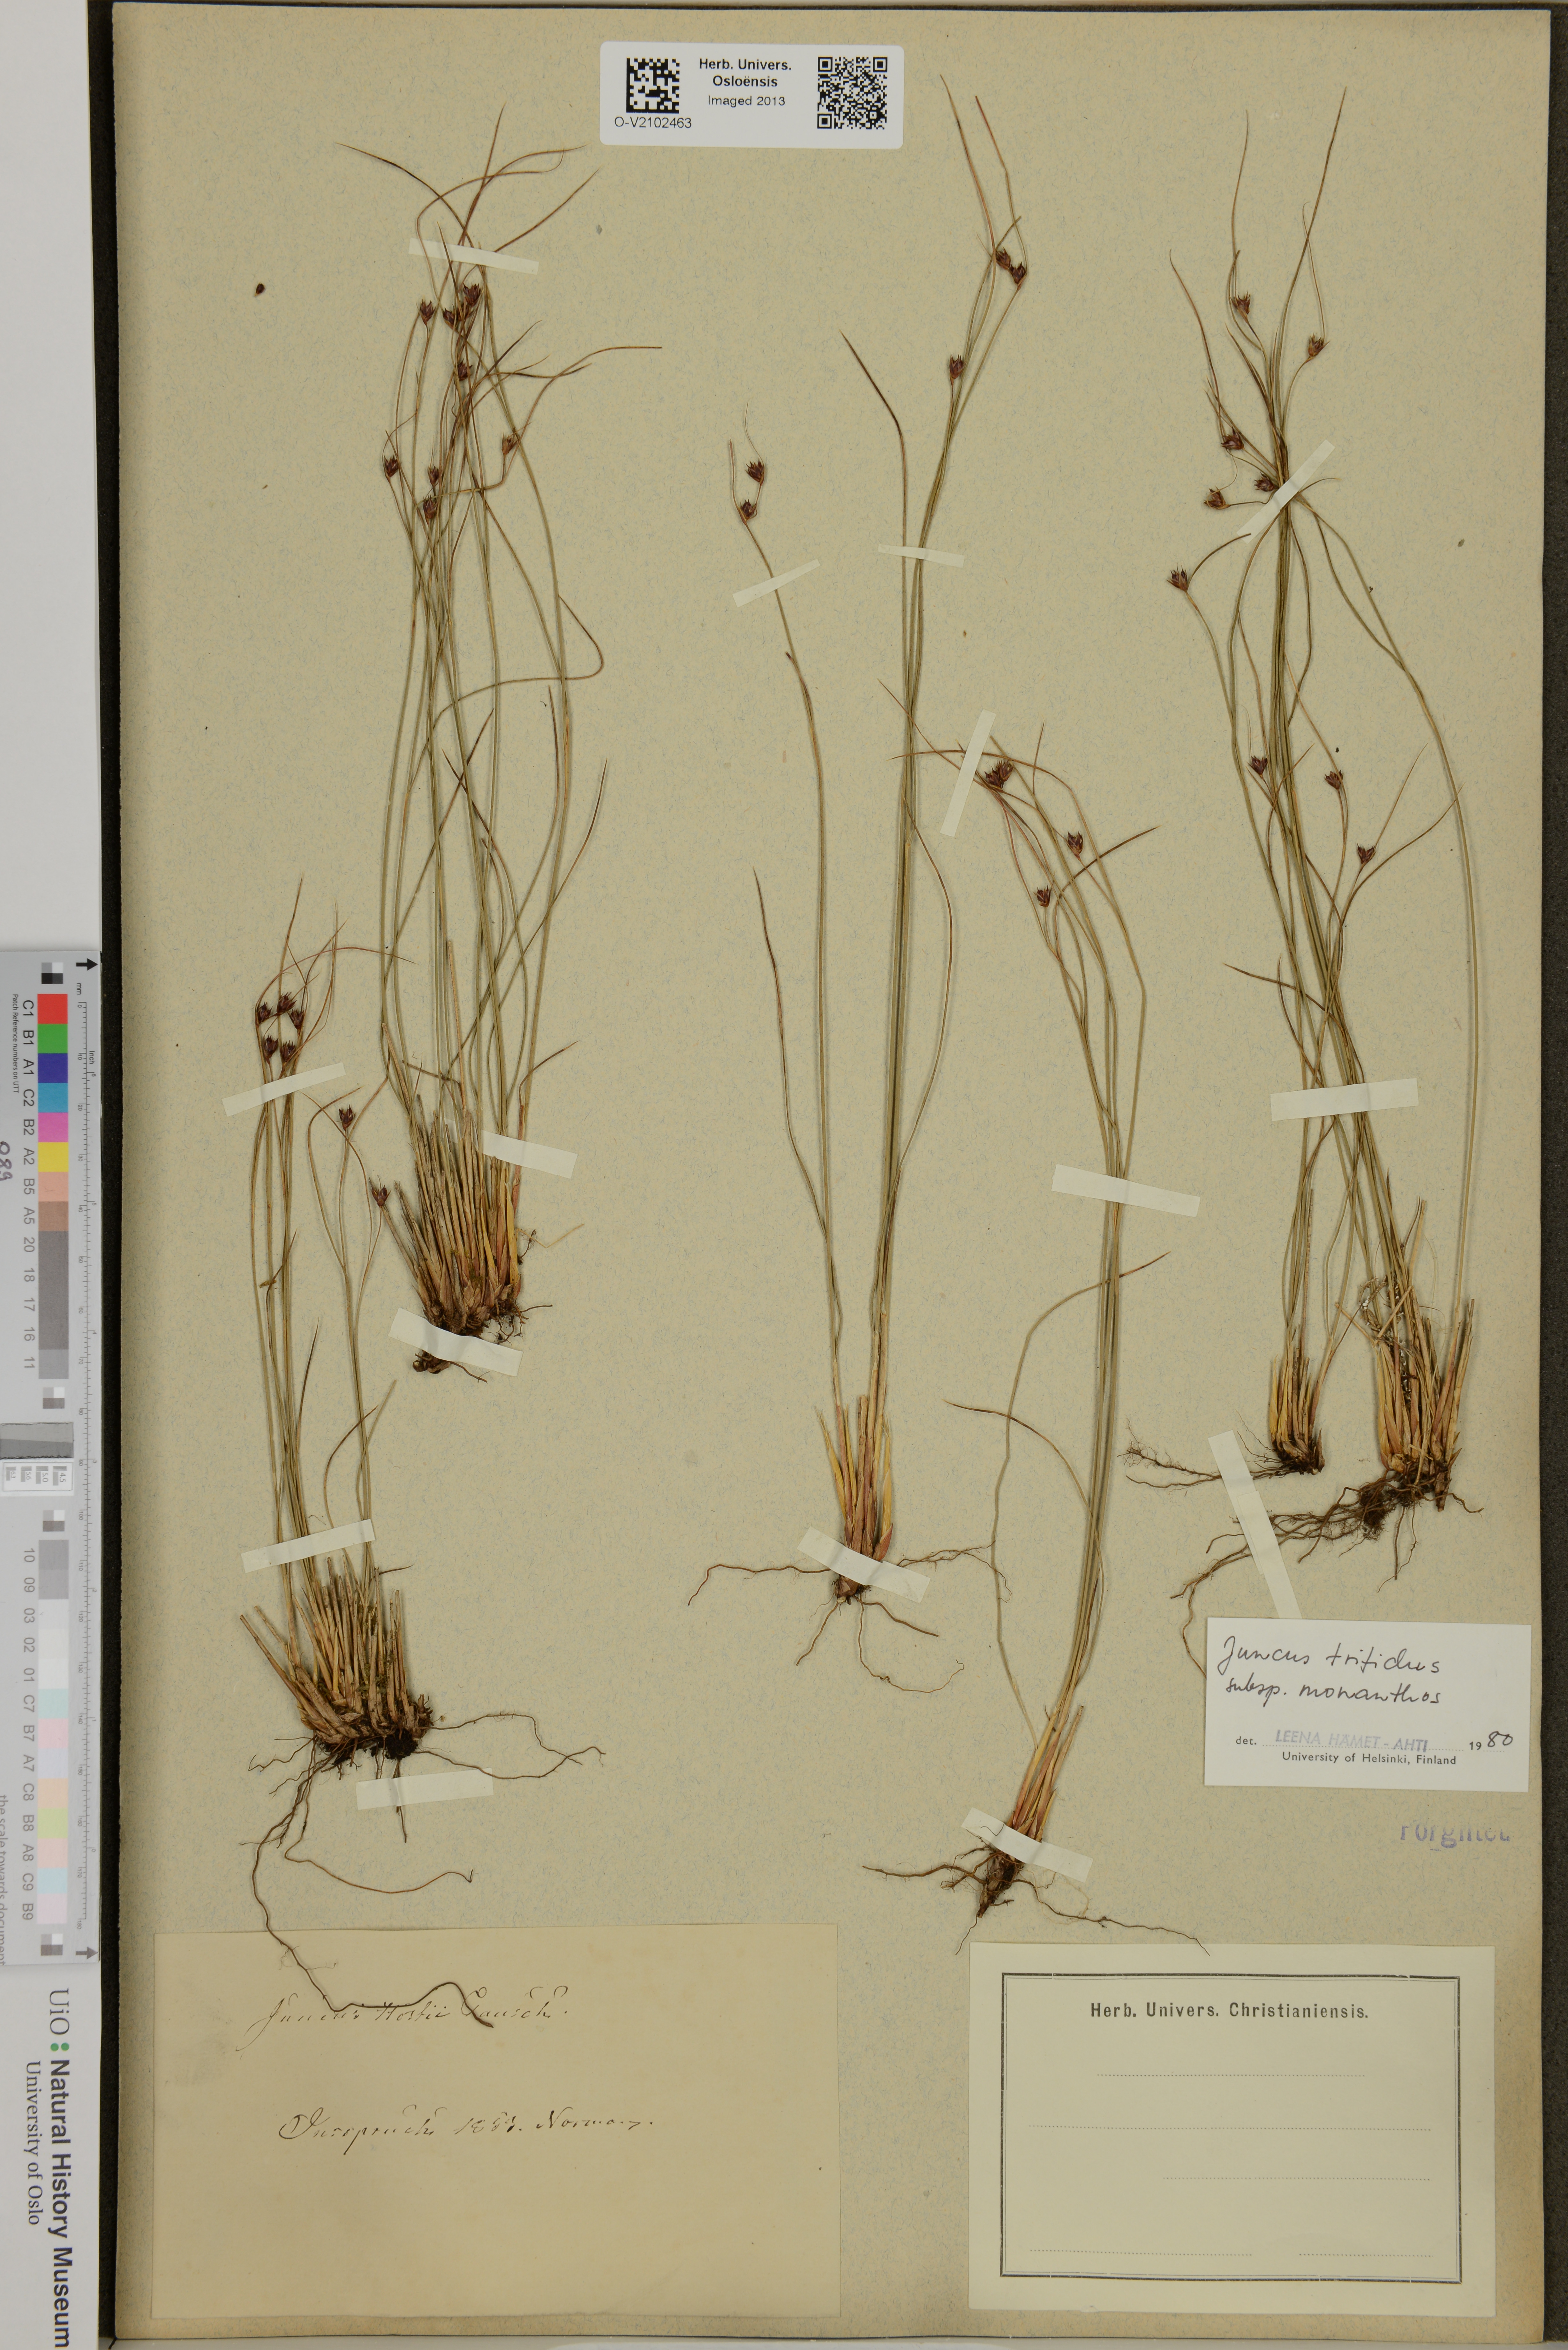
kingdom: Plantae
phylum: Tracheophyta
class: Liliopsida
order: Poales
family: Juncaceae
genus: Oreojuncus
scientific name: Oreojuncus trifidus
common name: Highland rush
